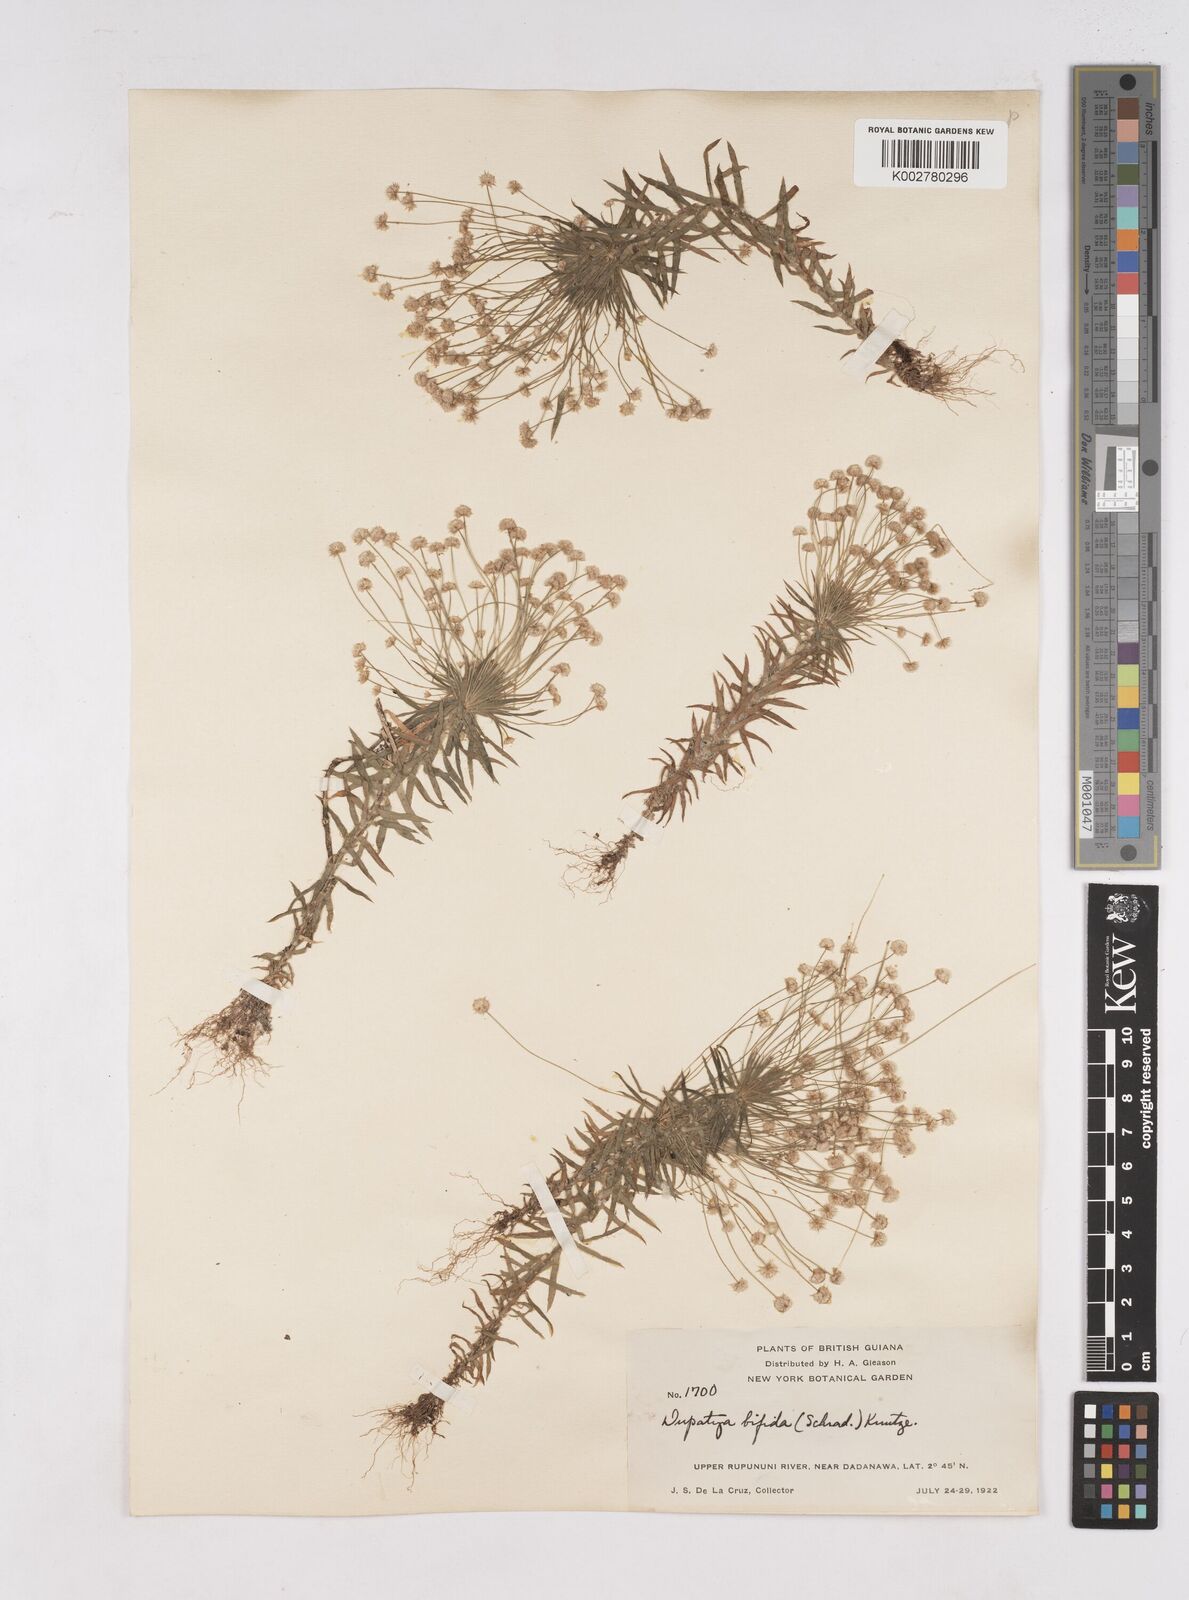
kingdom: Plantae
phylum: Tracheophyta
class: Liliopsida
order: Poales
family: Eriocaulaceae
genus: Paepalanthus
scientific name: Paepalanthus bifidus
